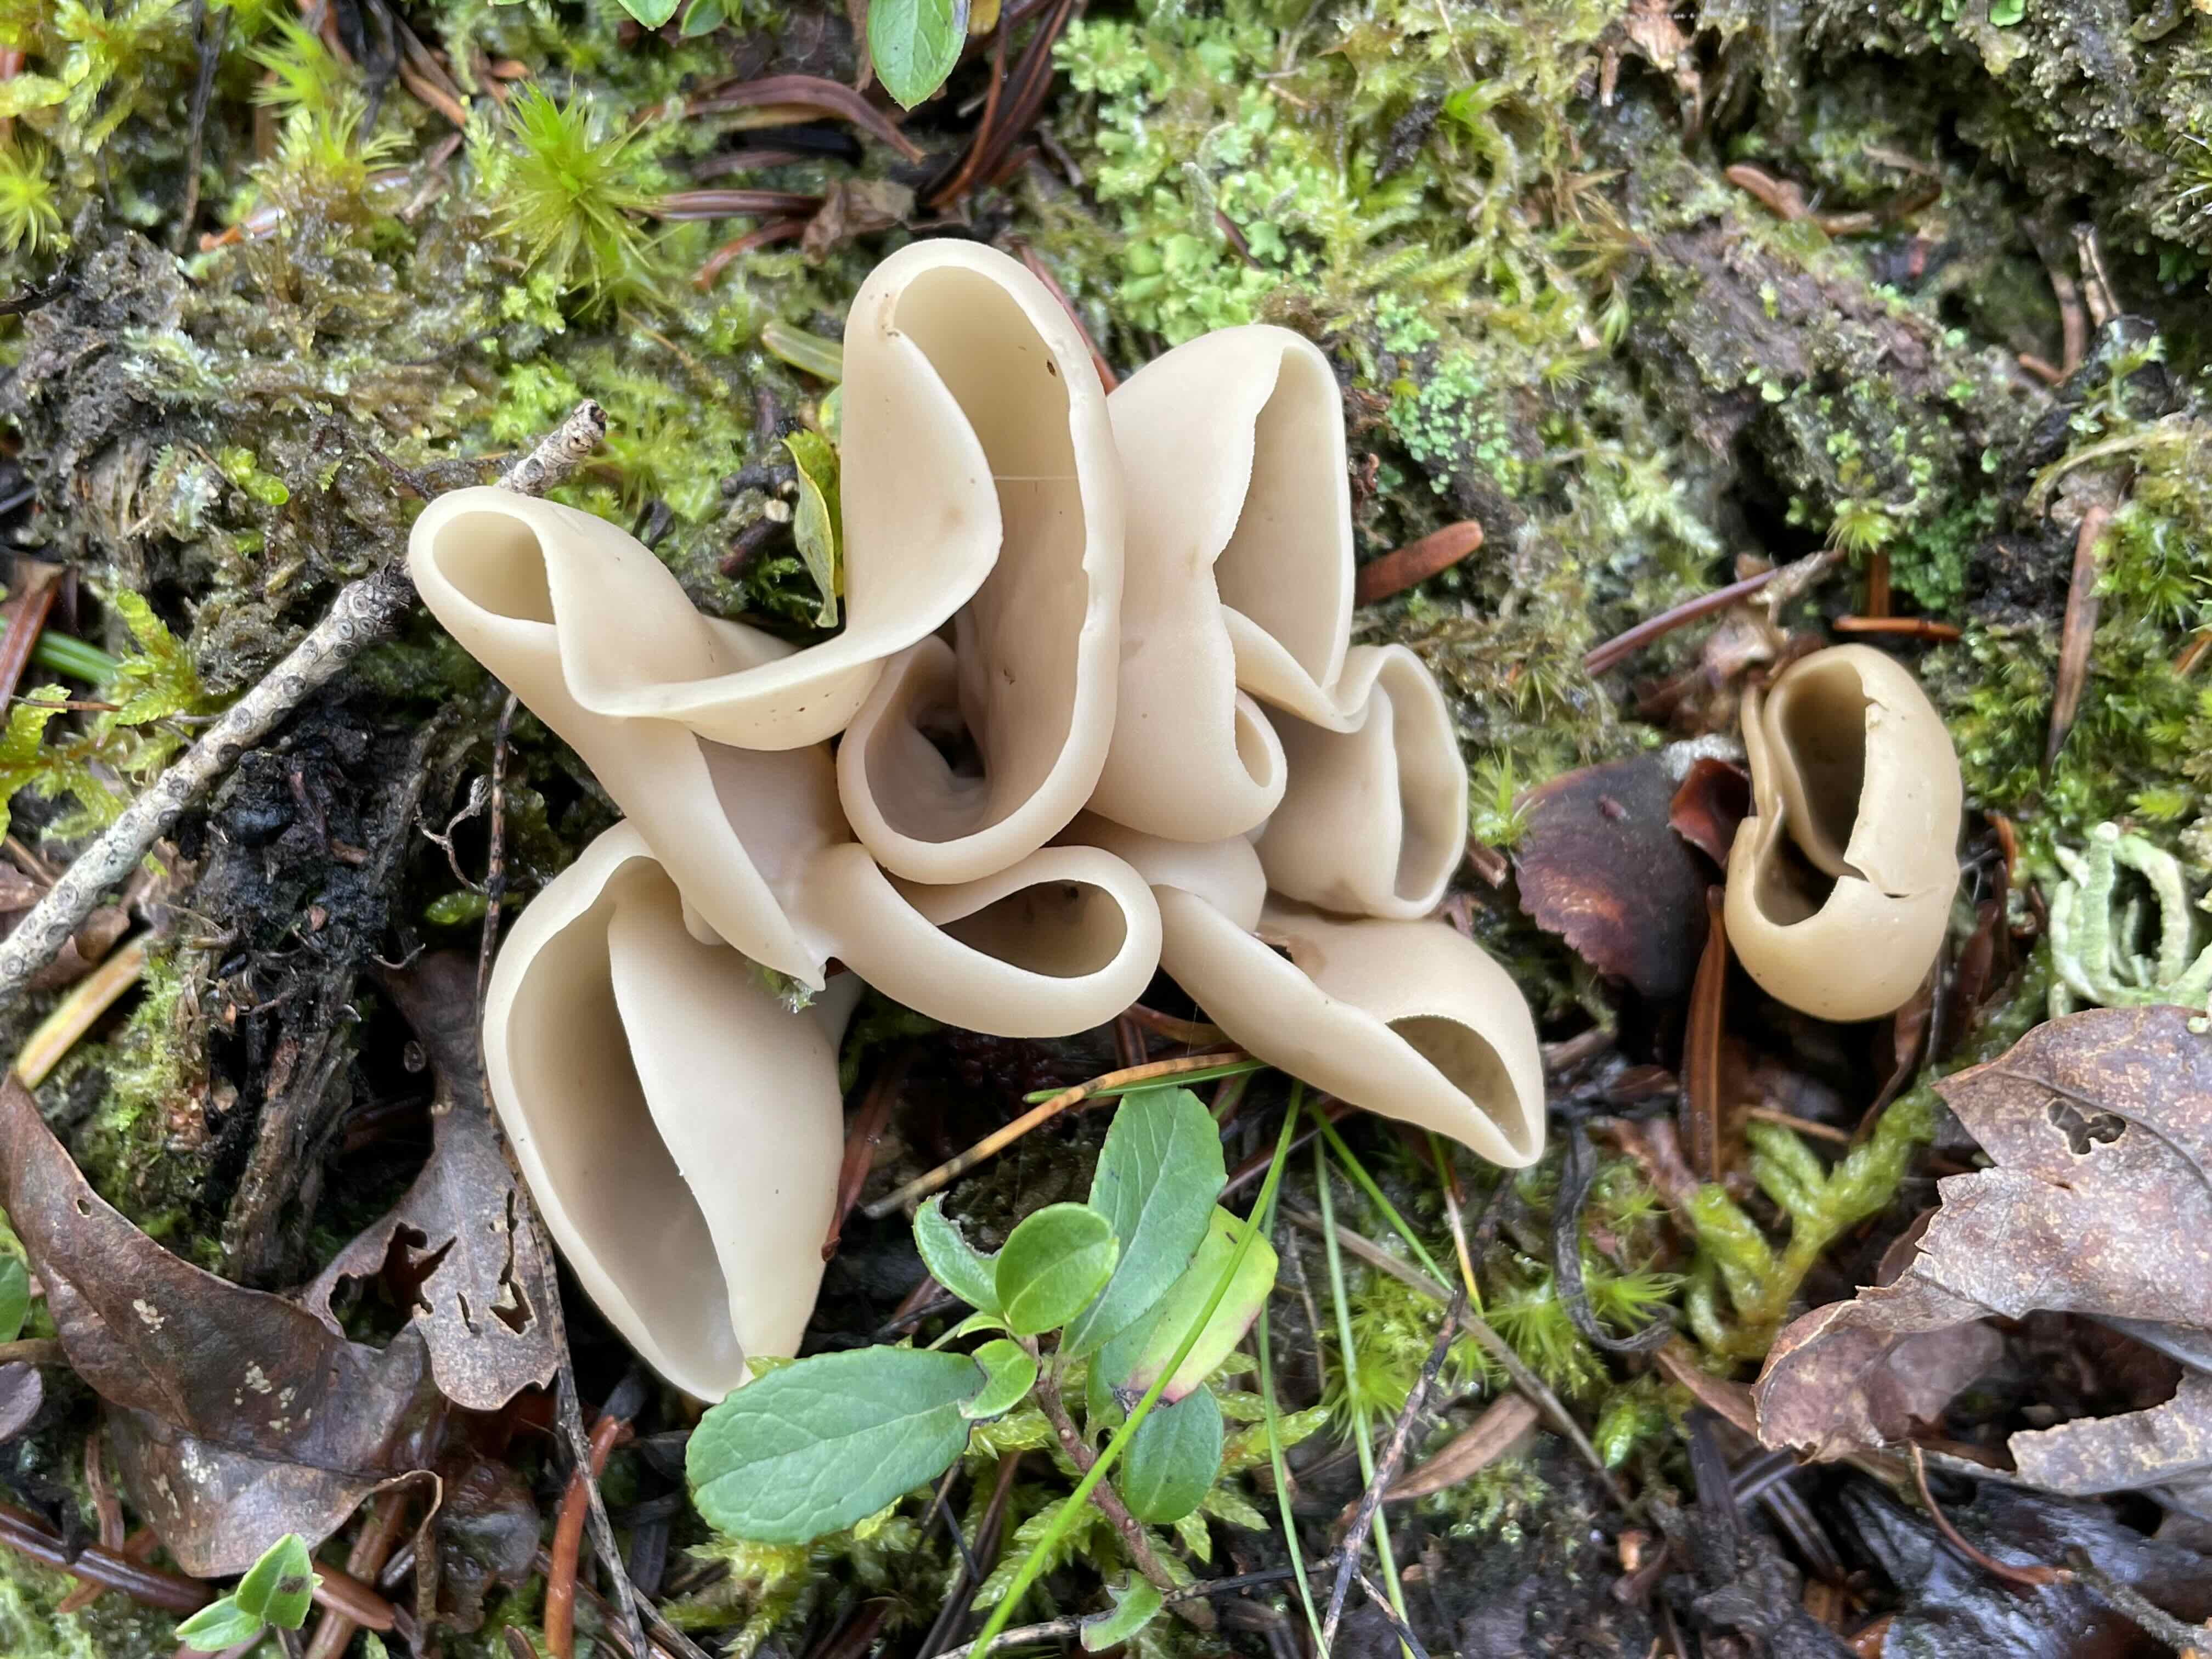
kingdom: Fungi
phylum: Ascomycota
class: Pezizomycetes
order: Pezizales
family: Otideaceae
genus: Otidea
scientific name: Otidea alutacea
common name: læder-ørebæger
